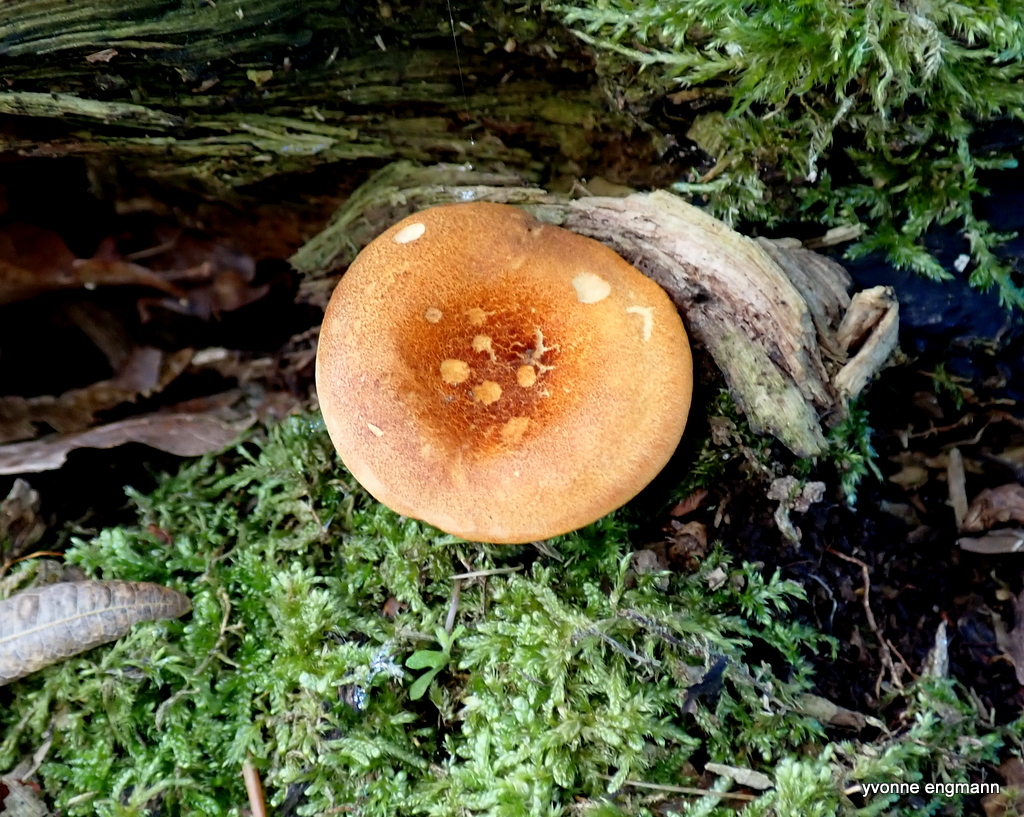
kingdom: Fungi
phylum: Basidiomycota
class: Agaricomycetes
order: Boletales
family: Hygrophoropsidaceae
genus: Hygrophoropsis
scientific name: Hygrophoropsis rufa
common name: brunfiltet orangekantarel
